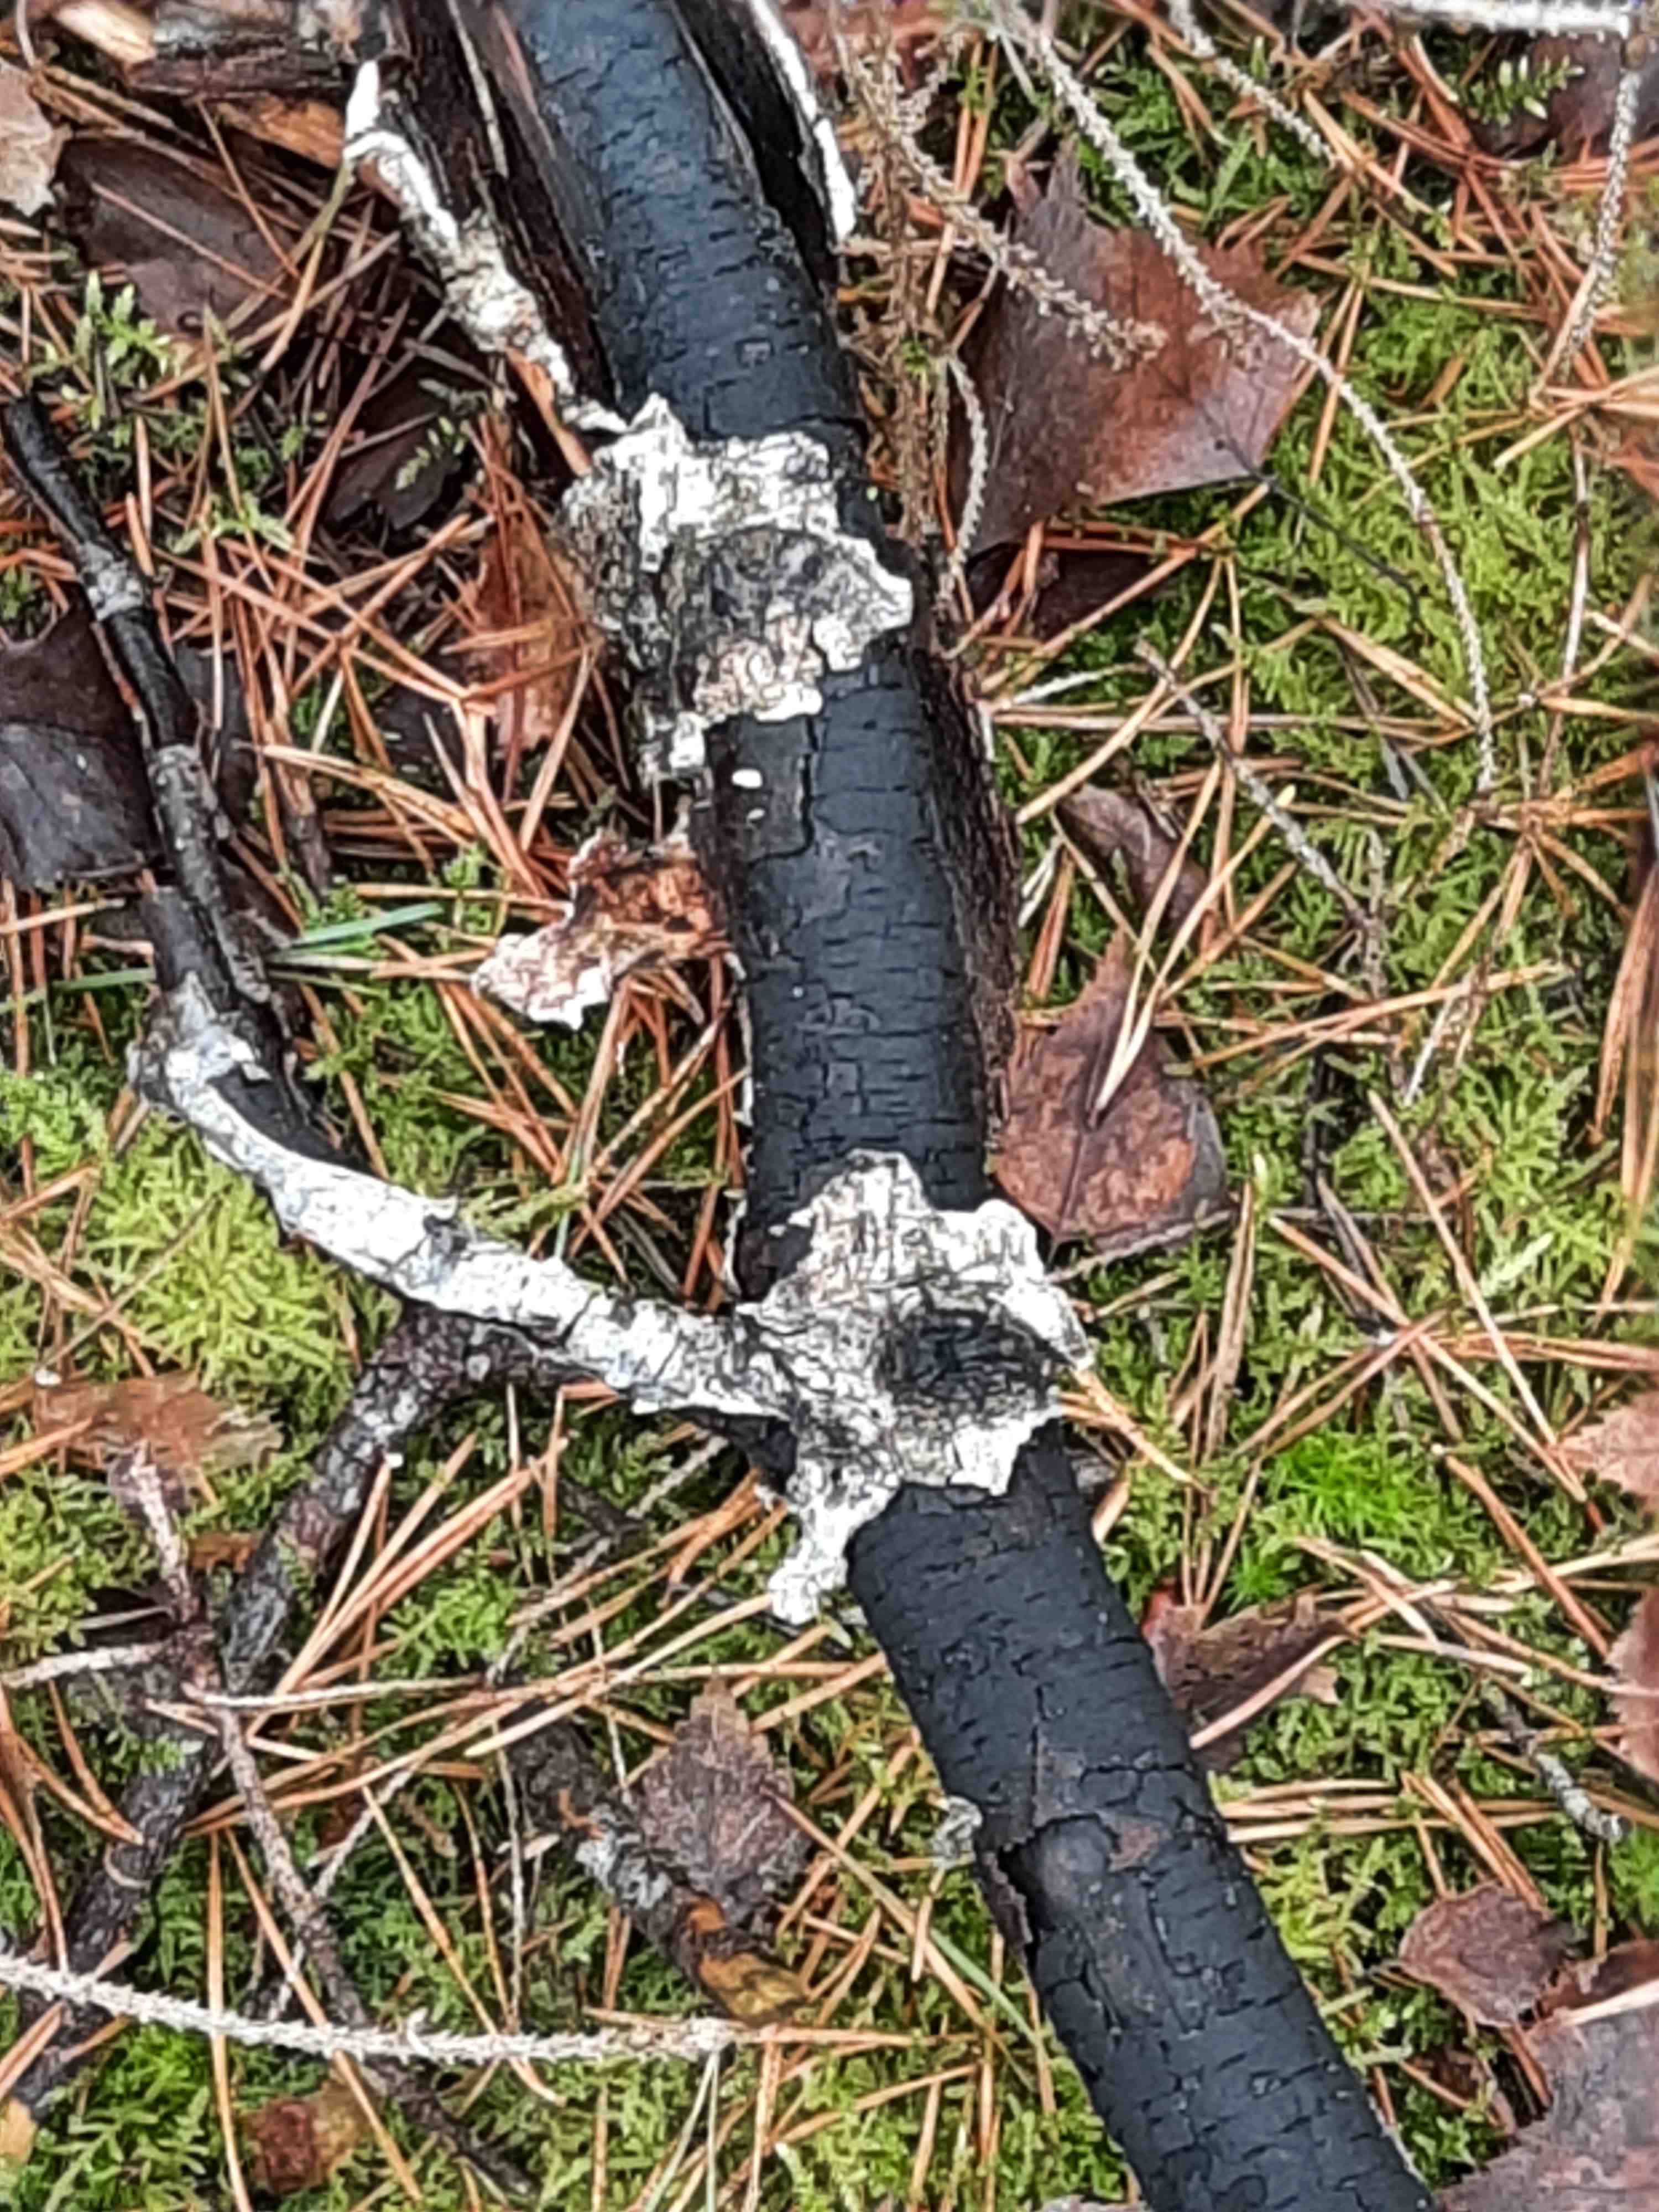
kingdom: Fungi
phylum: Ascomycota
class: Sordariomycetes
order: Xylariales
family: Diatrypaceae
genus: Diatrype
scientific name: Diatrype
